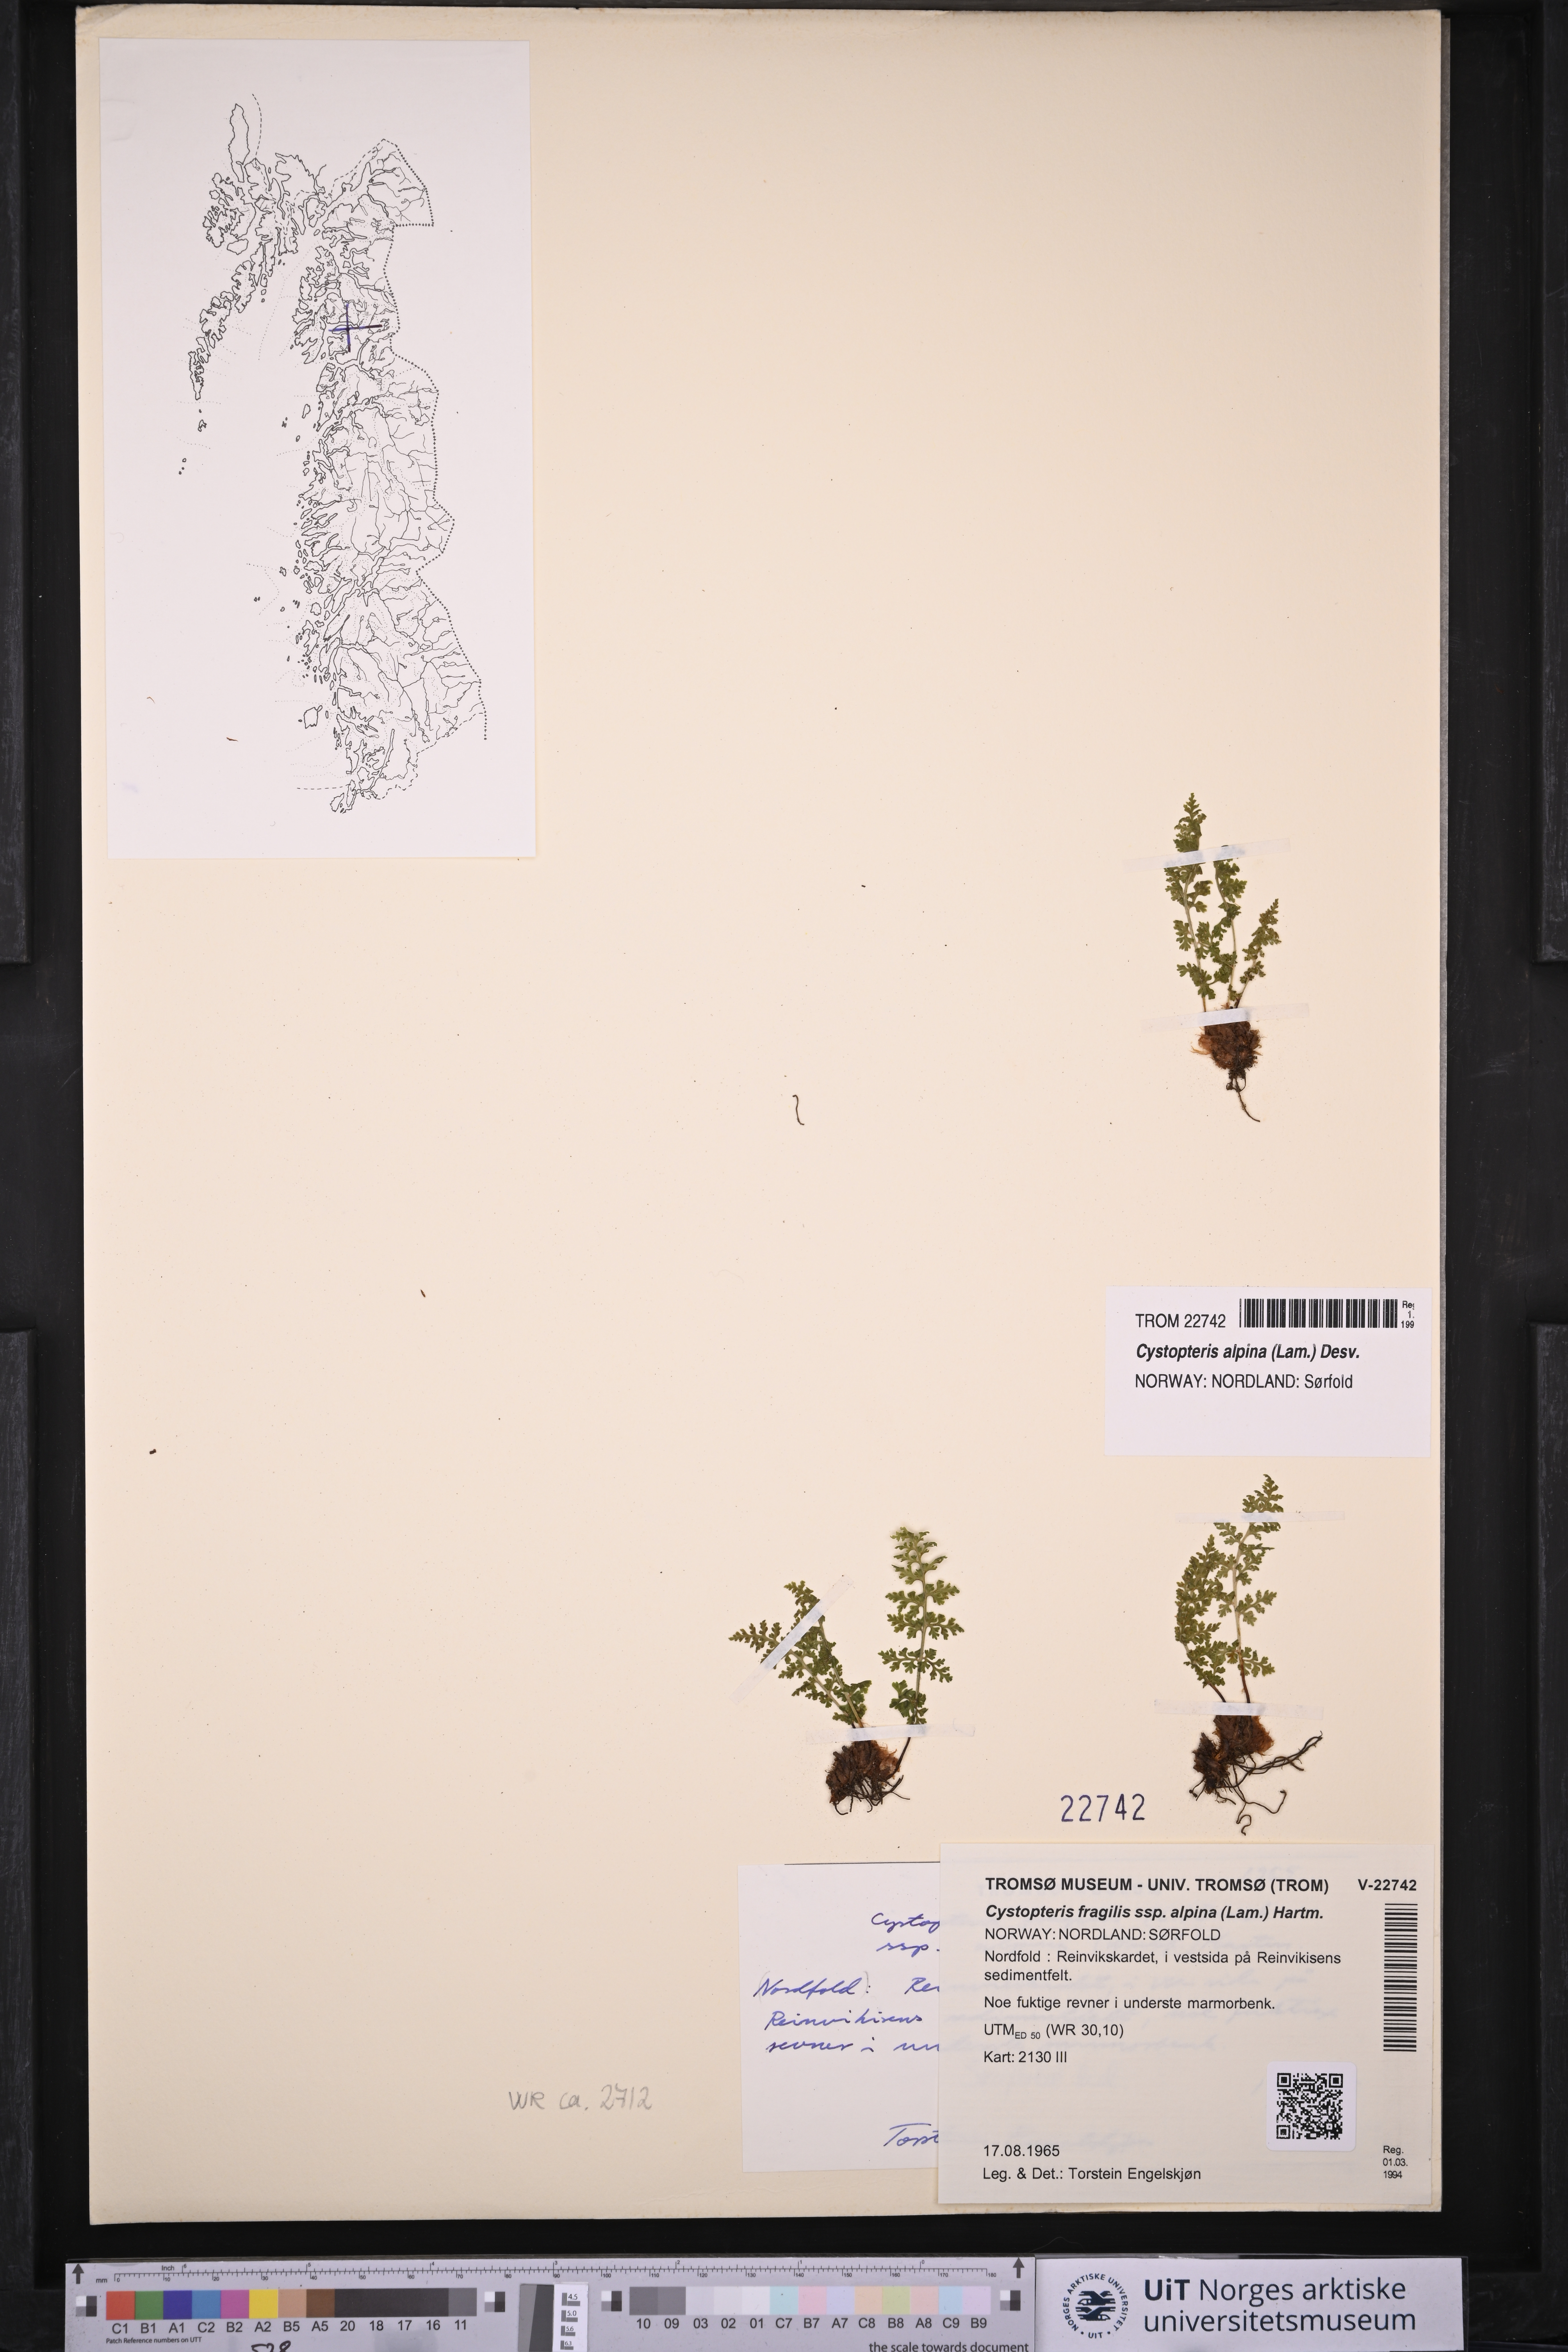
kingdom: Plantae
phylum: Tracheophyta
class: Polypodiopsida
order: Polypodiales
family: Cystopteridaceae
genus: Cystopteris
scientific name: Cystopteris alpina
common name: Alpine bladder-fern
